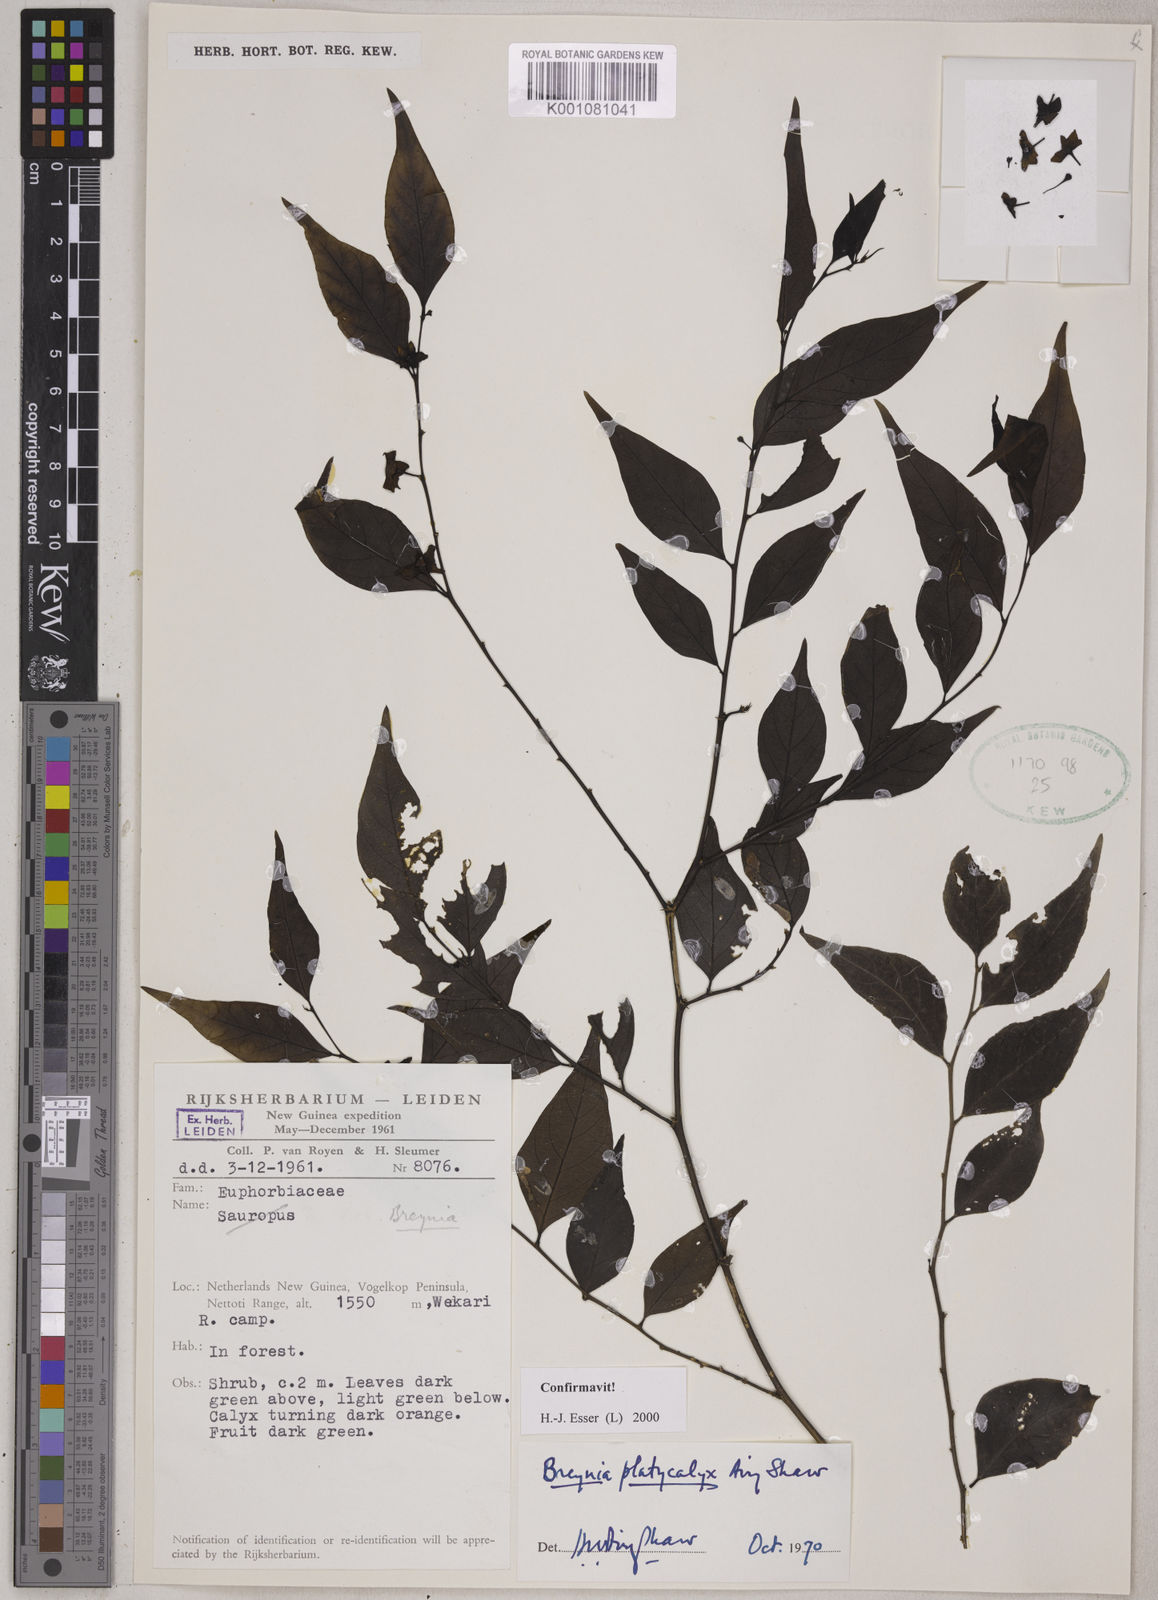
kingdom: Plantae
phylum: Tracheophyta
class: Magnoliopsida
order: Malpighiales
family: Phyllanthaceae
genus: Breynia
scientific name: Breynia platycalyx
